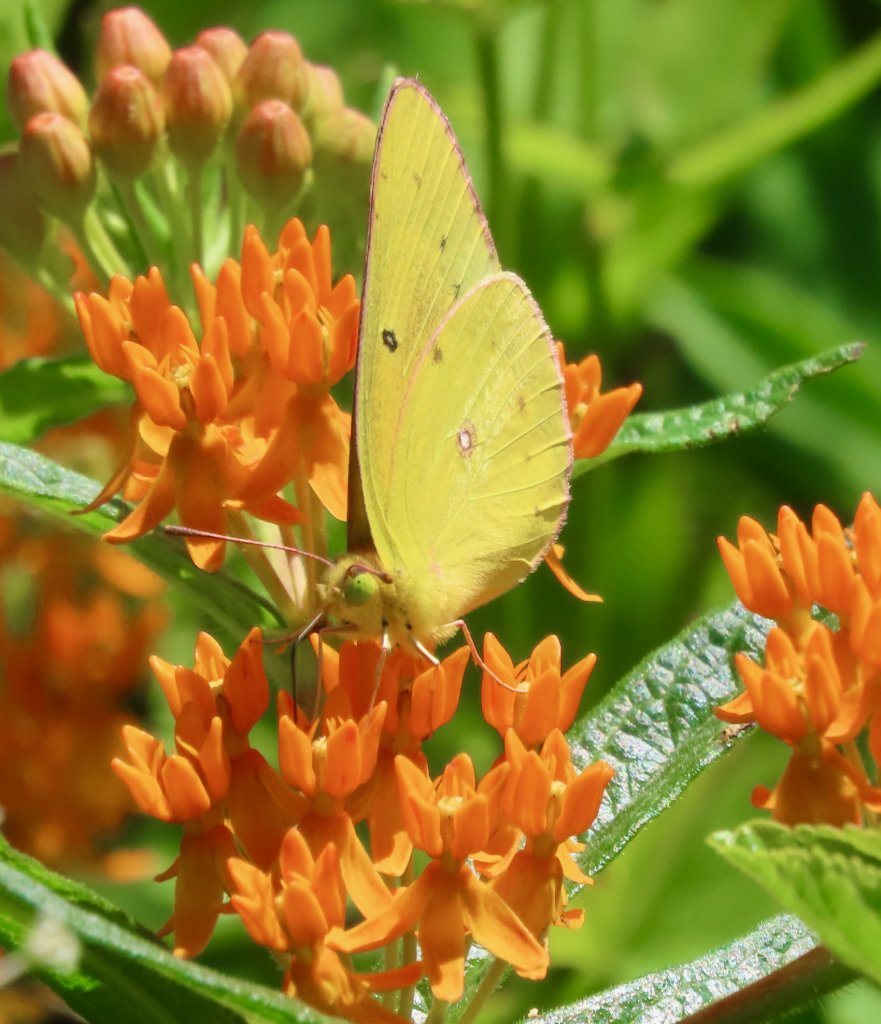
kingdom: Animalia
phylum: Arthropoda
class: Insecta
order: Lepidoptera
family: Pieridae
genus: Colias
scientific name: Colias eurytheme
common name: Orange Sulphur
